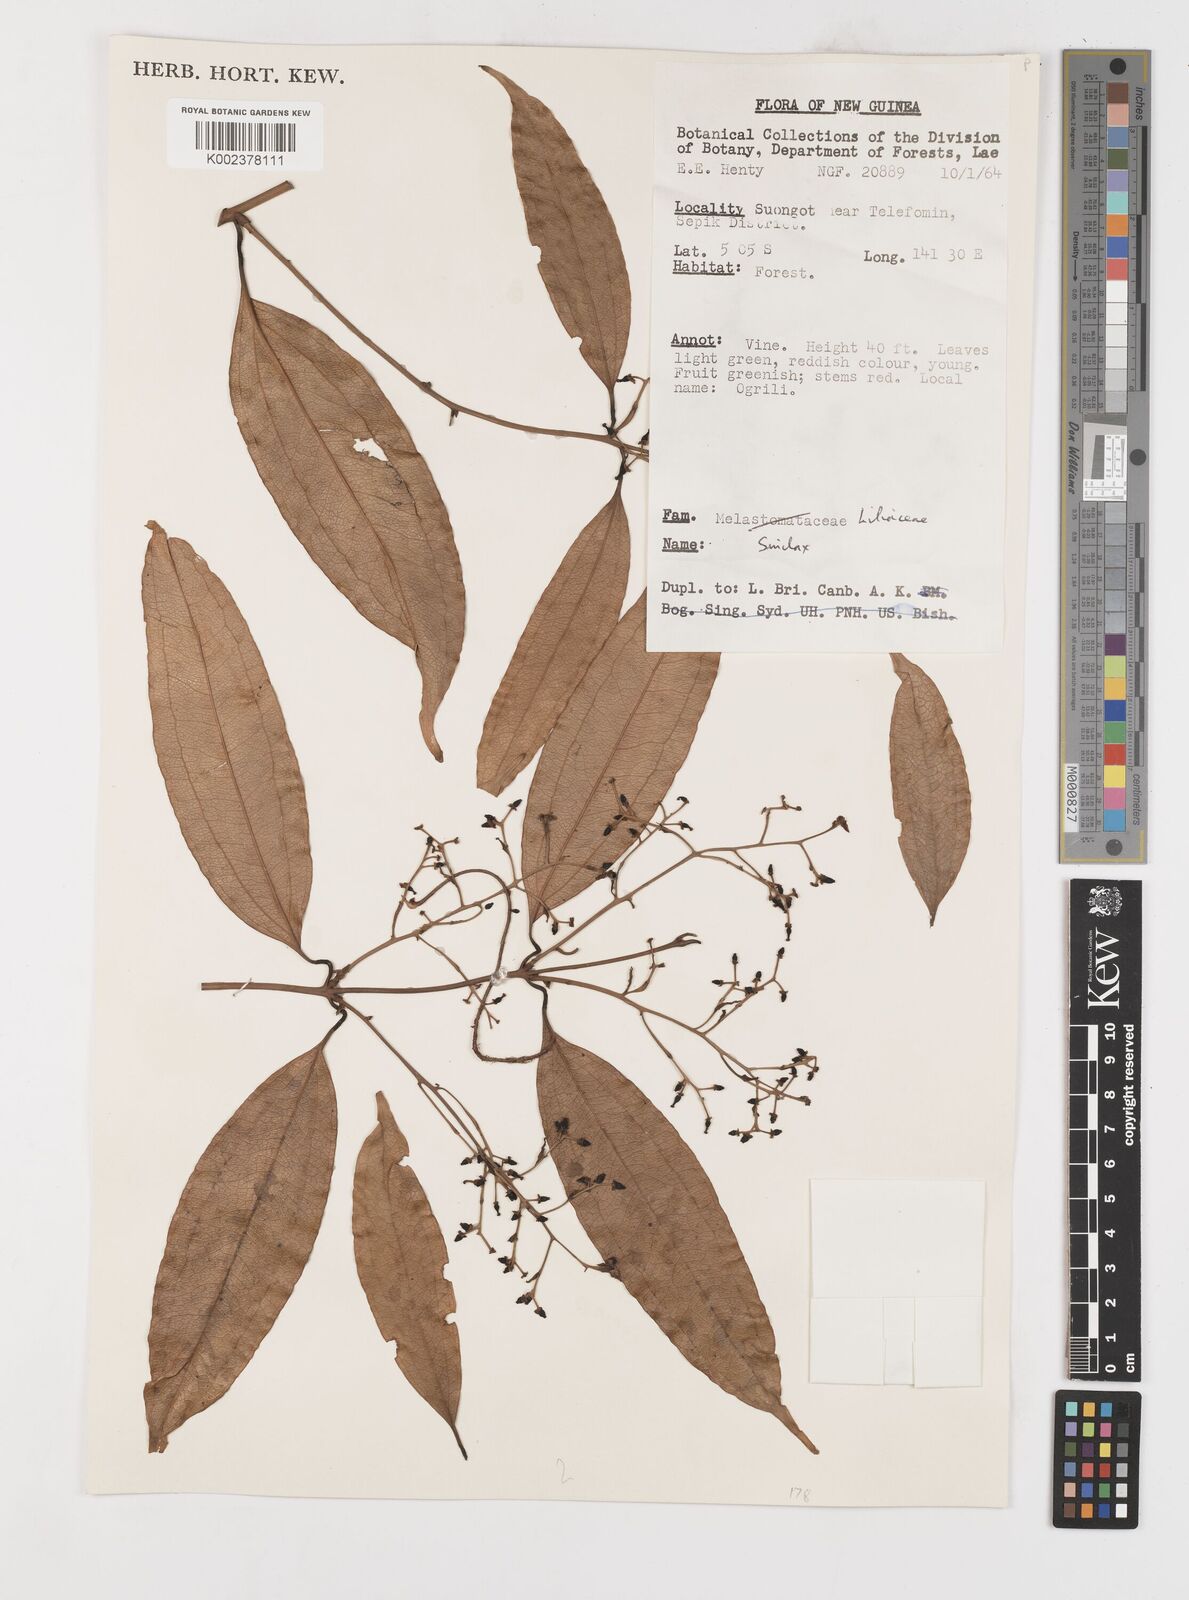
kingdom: Plantae
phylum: Tracheophyta
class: Liliopsida
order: Liliales
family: Smilacaceae
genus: Smilax
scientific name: Smilax
